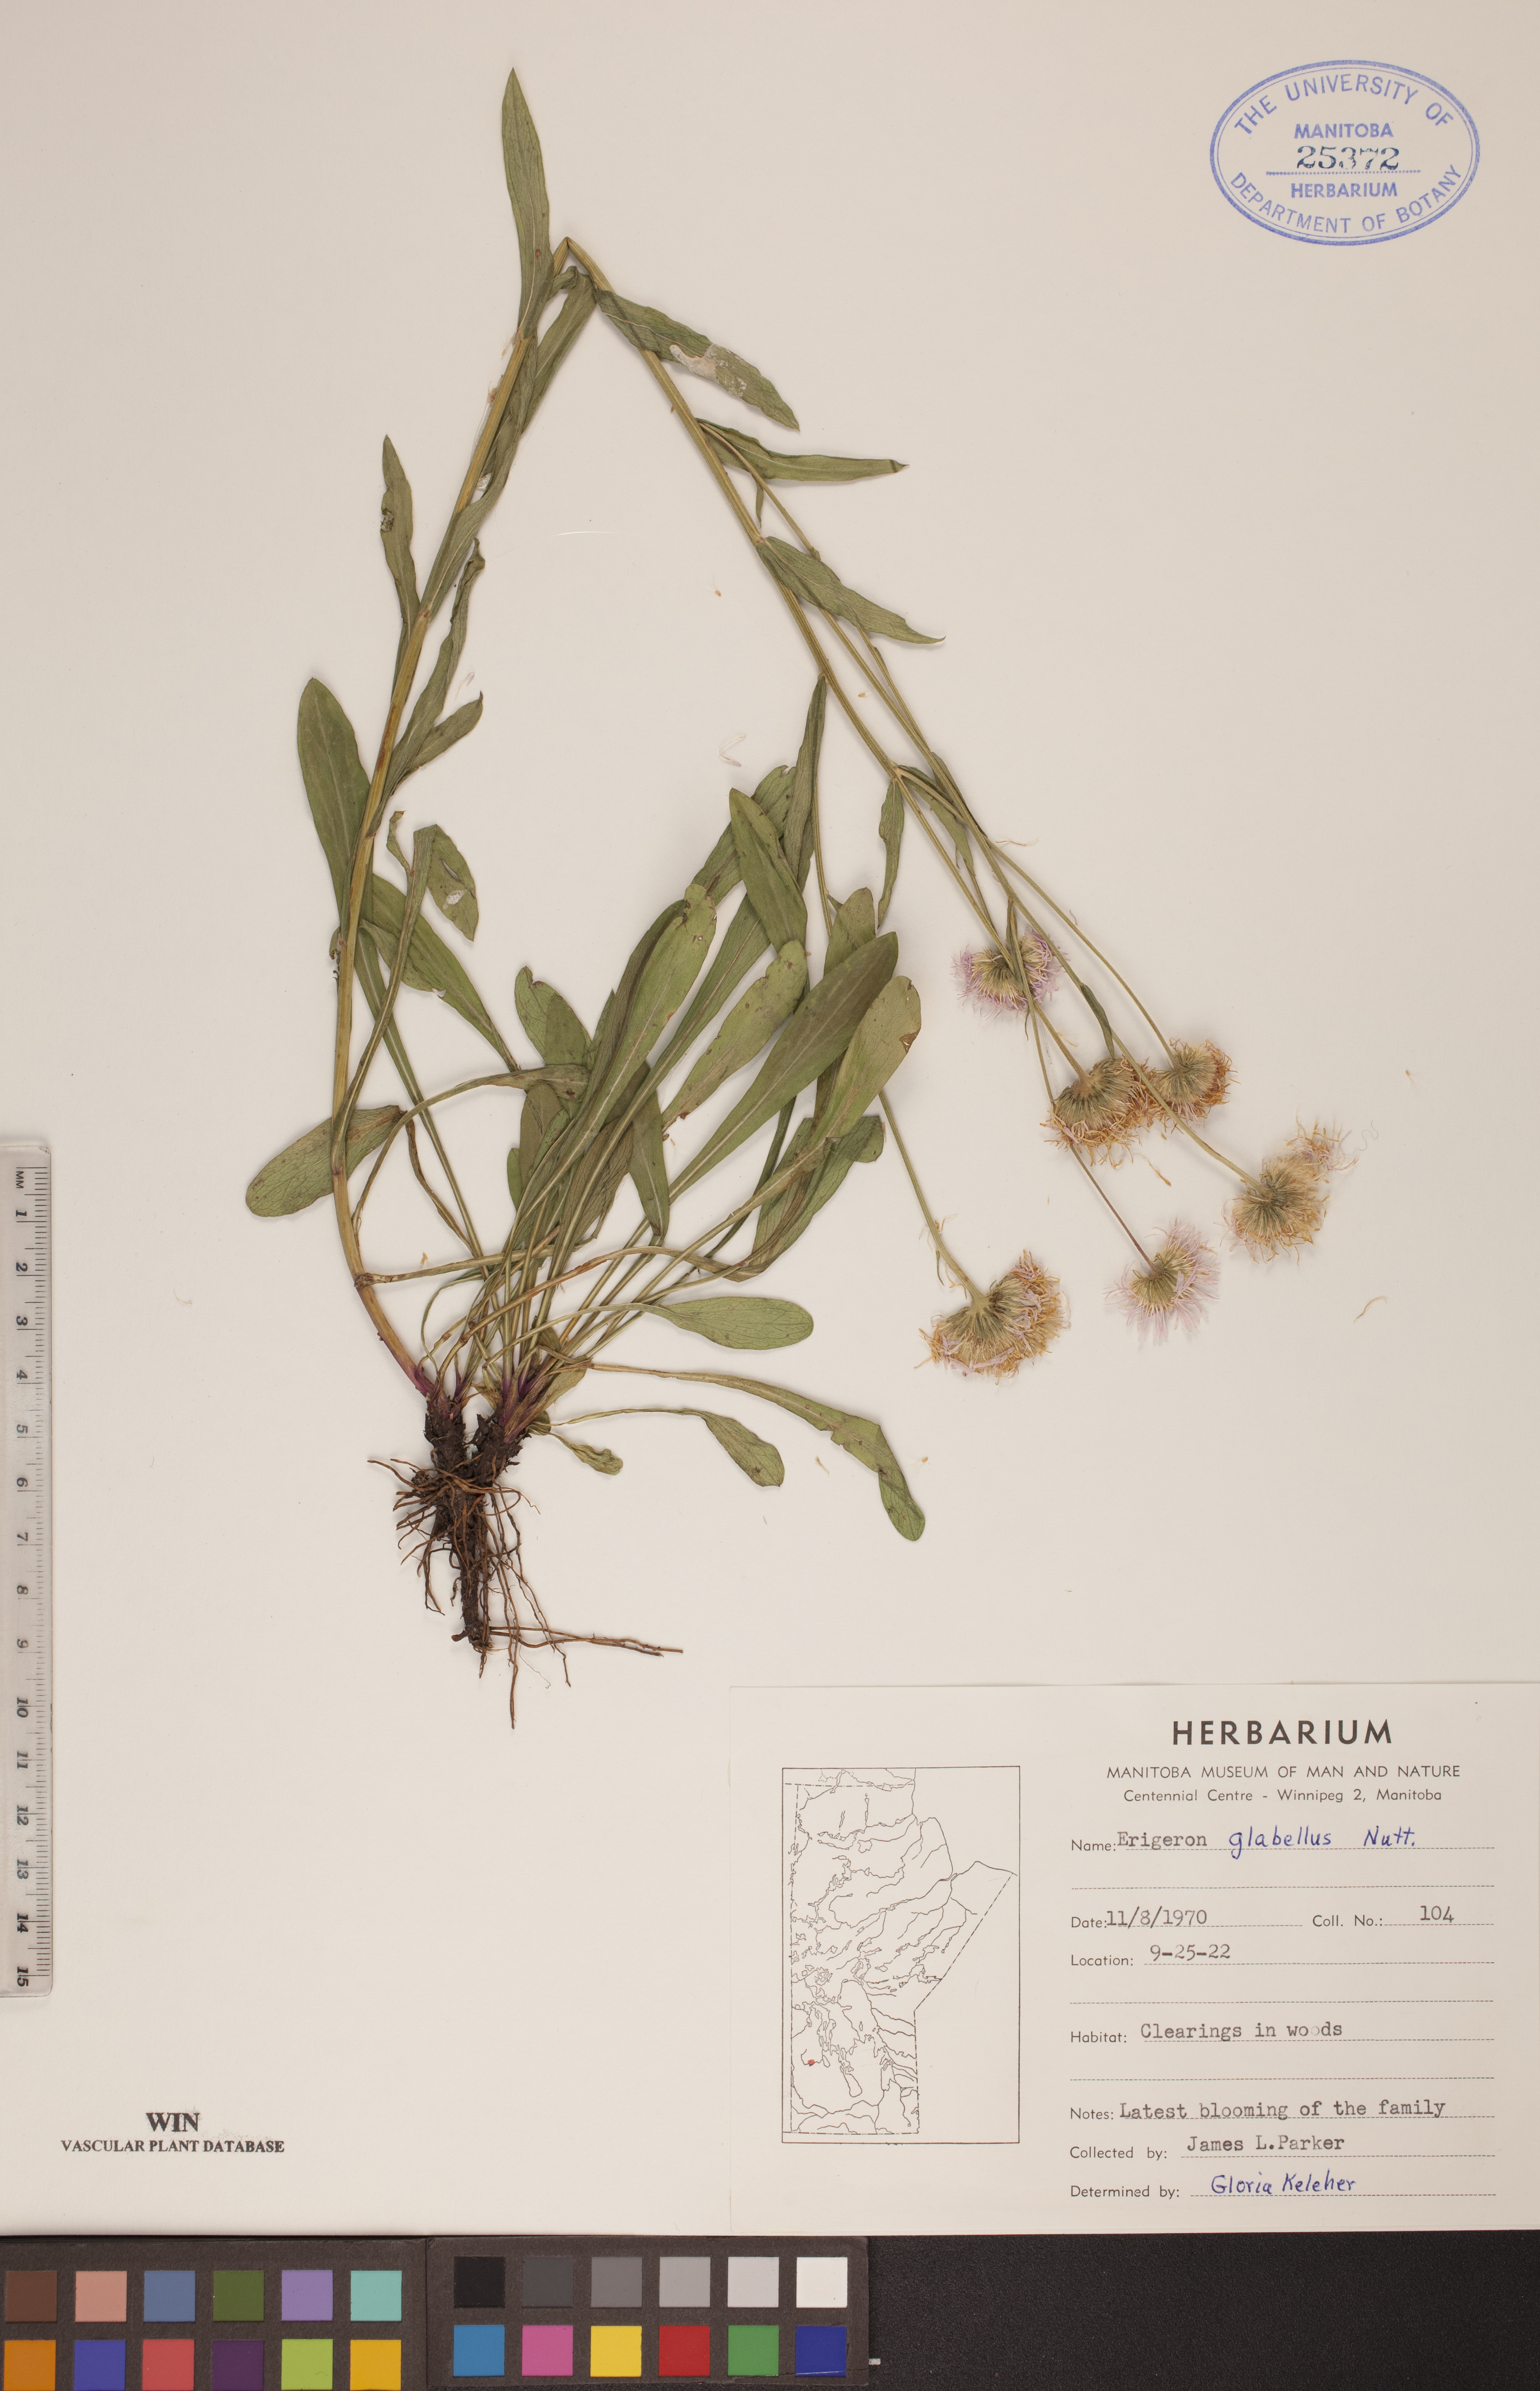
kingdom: Plantae
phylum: Tracheophyta
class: Magnoliopsida
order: Asterales
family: Asteraceae
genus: Erigeron
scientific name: Erigeron glabellus
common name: Smooth fleabane
